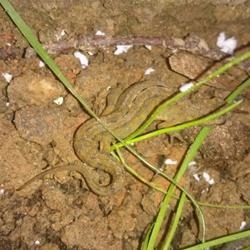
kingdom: Animalia
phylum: Chordata
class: Amphibia
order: Caudata
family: Salamandridae
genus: Lissotriton
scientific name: Lissotriton vulgaris
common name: Lille vandsalamander
